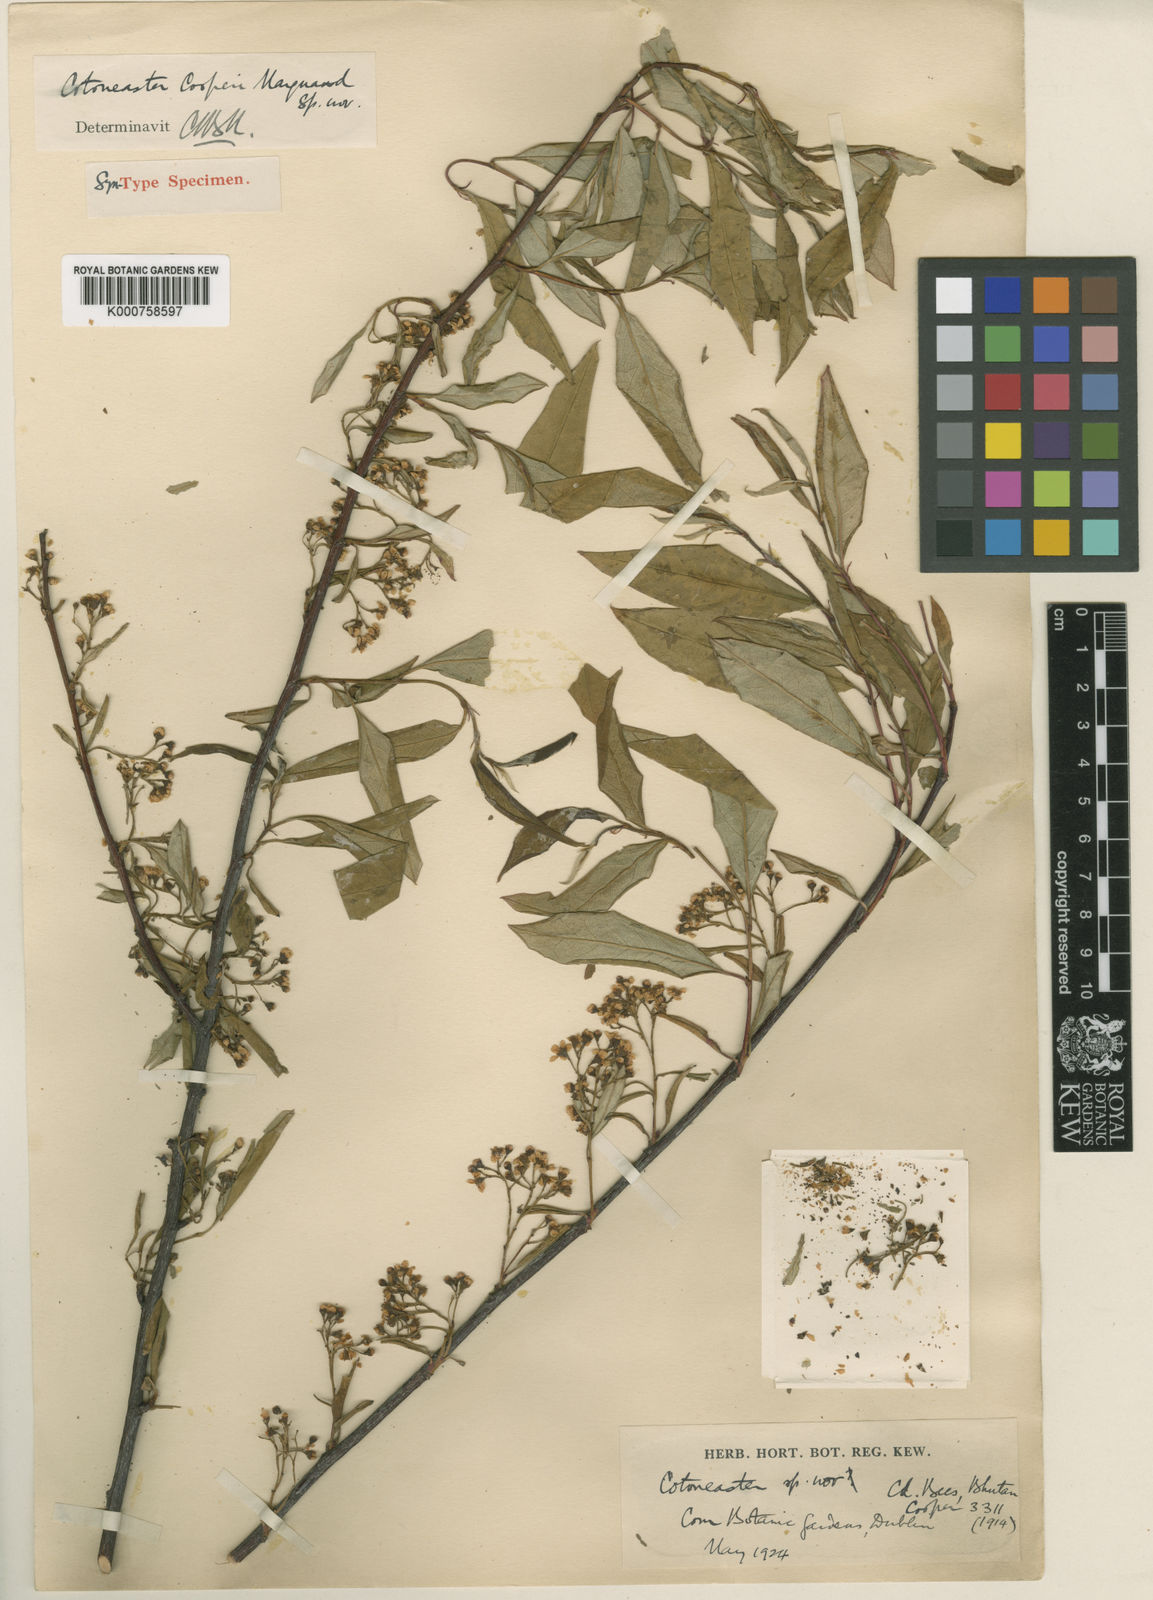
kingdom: Plantae
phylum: Tracheophyta
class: Magnoliopsida
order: Rosales
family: Rosaceae
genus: Cotoneaster
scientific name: Cotoneaster cooperi
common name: Cooper's cotoneaster
